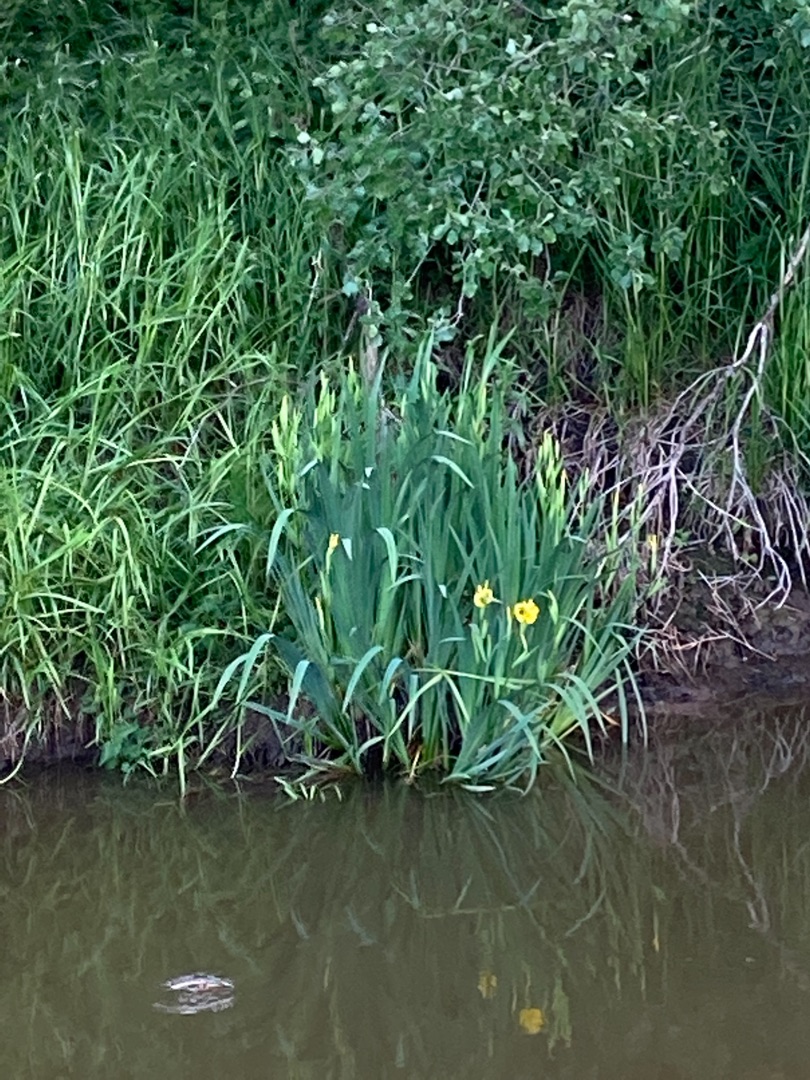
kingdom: Plantae
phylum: Tracheophyta
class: Liliopsida
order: Asparagales
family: Iridaceae
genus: Iris
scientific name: Iris pseudacorus
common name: Gul iris
